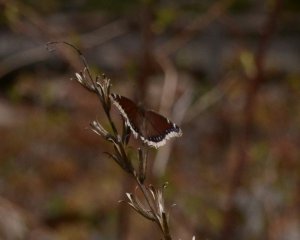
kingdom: Animalia
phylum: Arthropoda
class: Insecta
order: Lepidoptera
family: Nymphalidae
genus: Nymphalis
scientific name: Nymphalis antiopa
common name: Mourning Cloak
